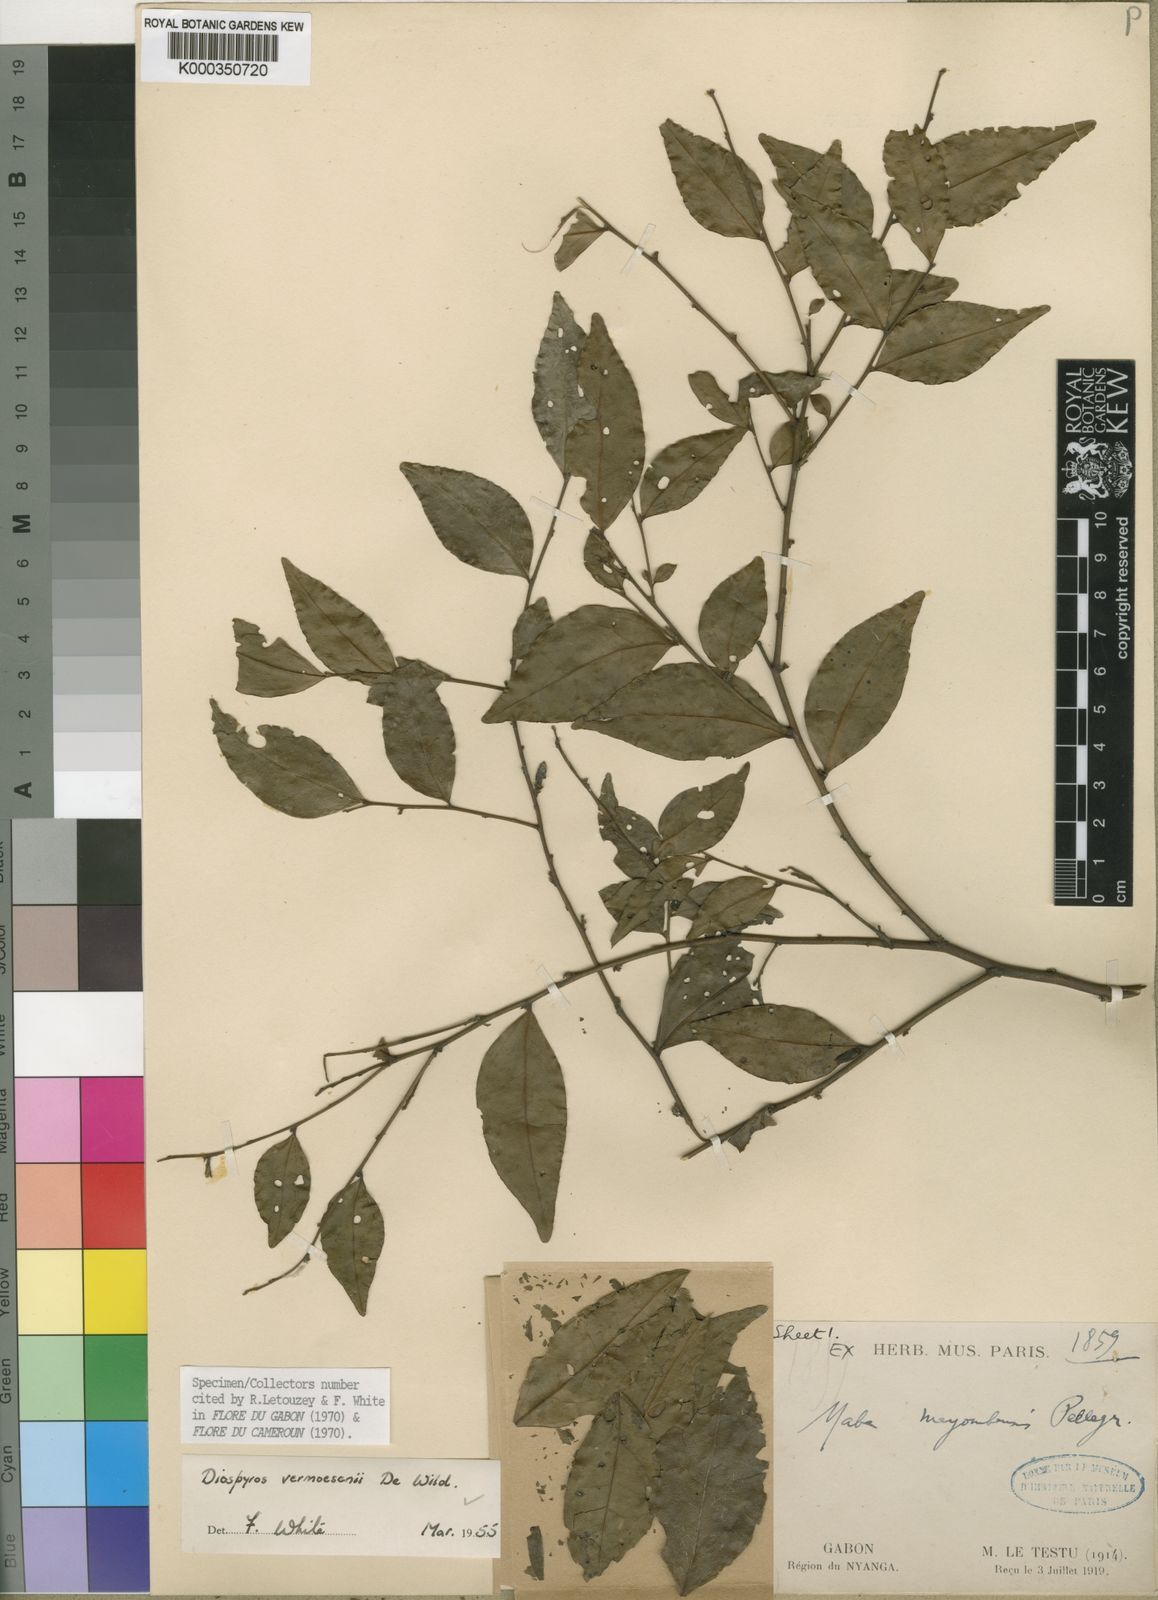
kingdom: Plantae
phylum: Tracheophyta
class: Magnoliopsida
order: Ericales
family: Ebenaceae
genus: Diospyros
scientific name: Diospyros vermoesenii
